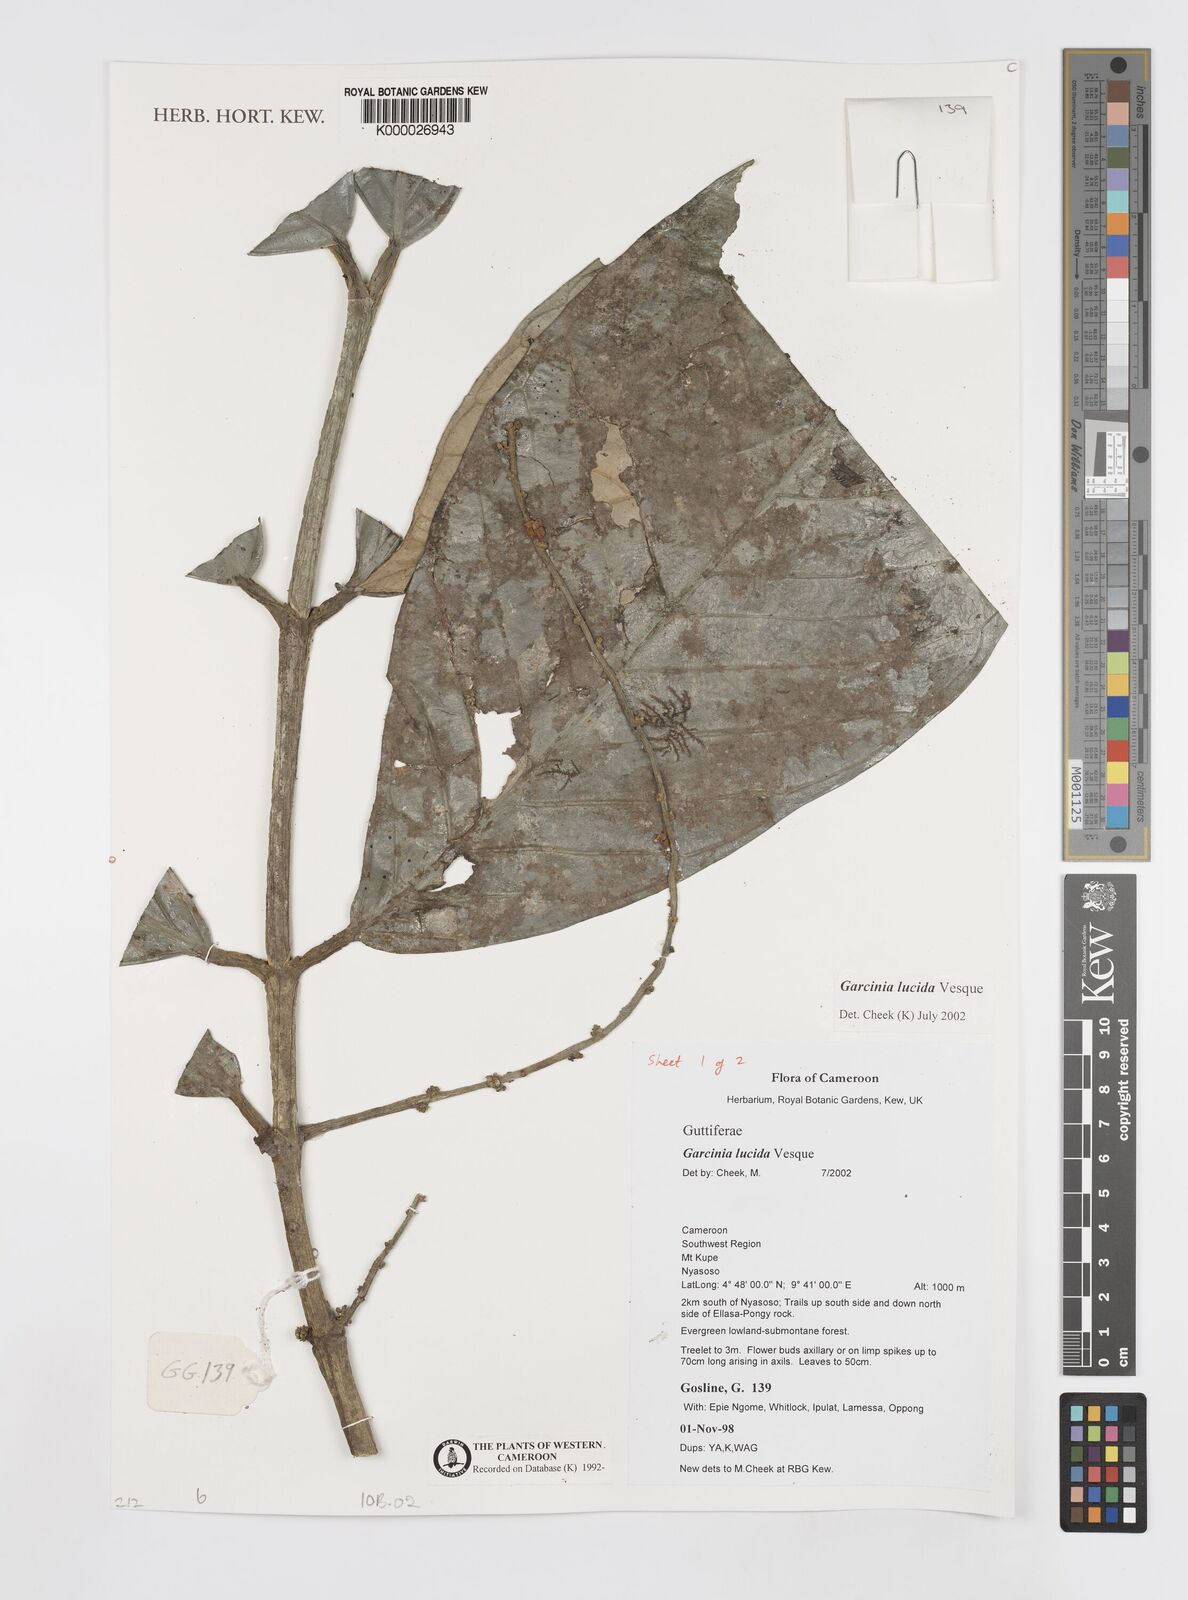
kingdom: Plantae
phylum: Tracheophyta
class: Magnoliopsida
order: Malpighiales
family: Clusiaceae
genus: Garcinia
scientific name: Garcinia lucida
